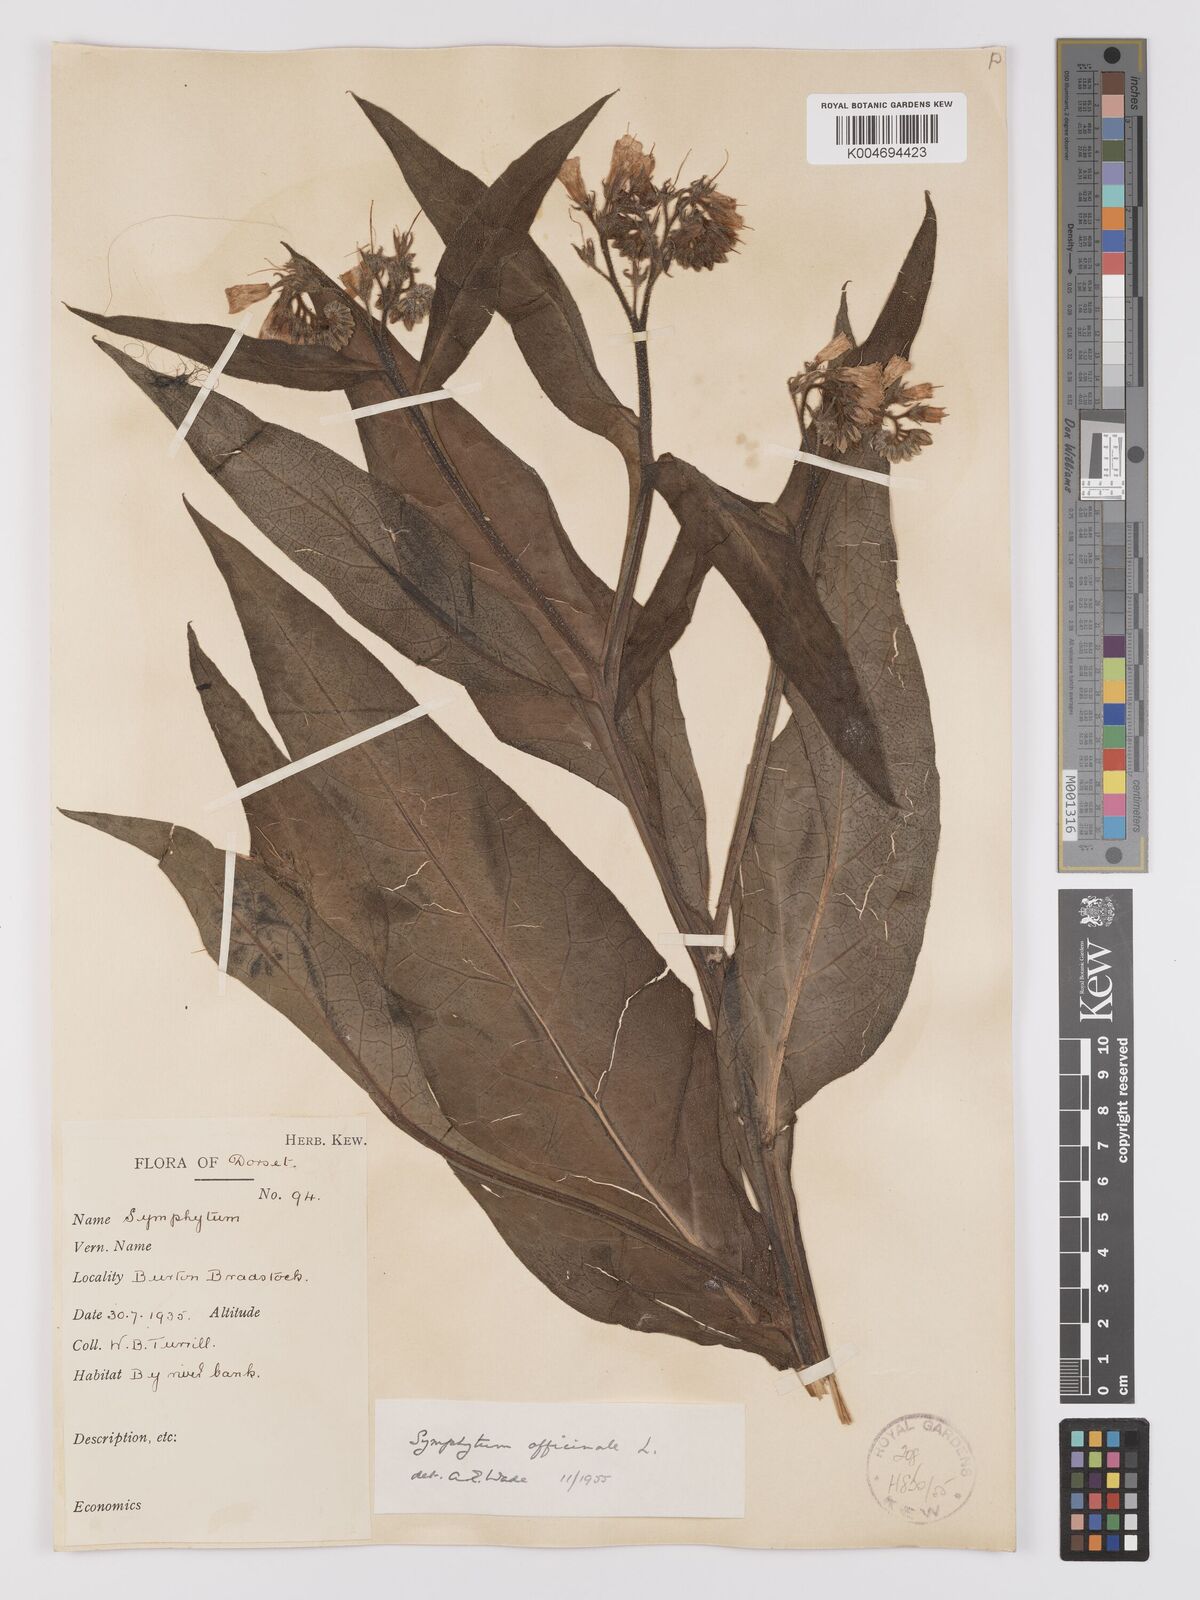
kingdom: Plantae
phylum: Tracheophyta
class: Magnoliopsida
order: Boraginales
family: Boraginaceae
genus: Symphytum
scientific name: Symphytum officinale
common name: Common comfrey
